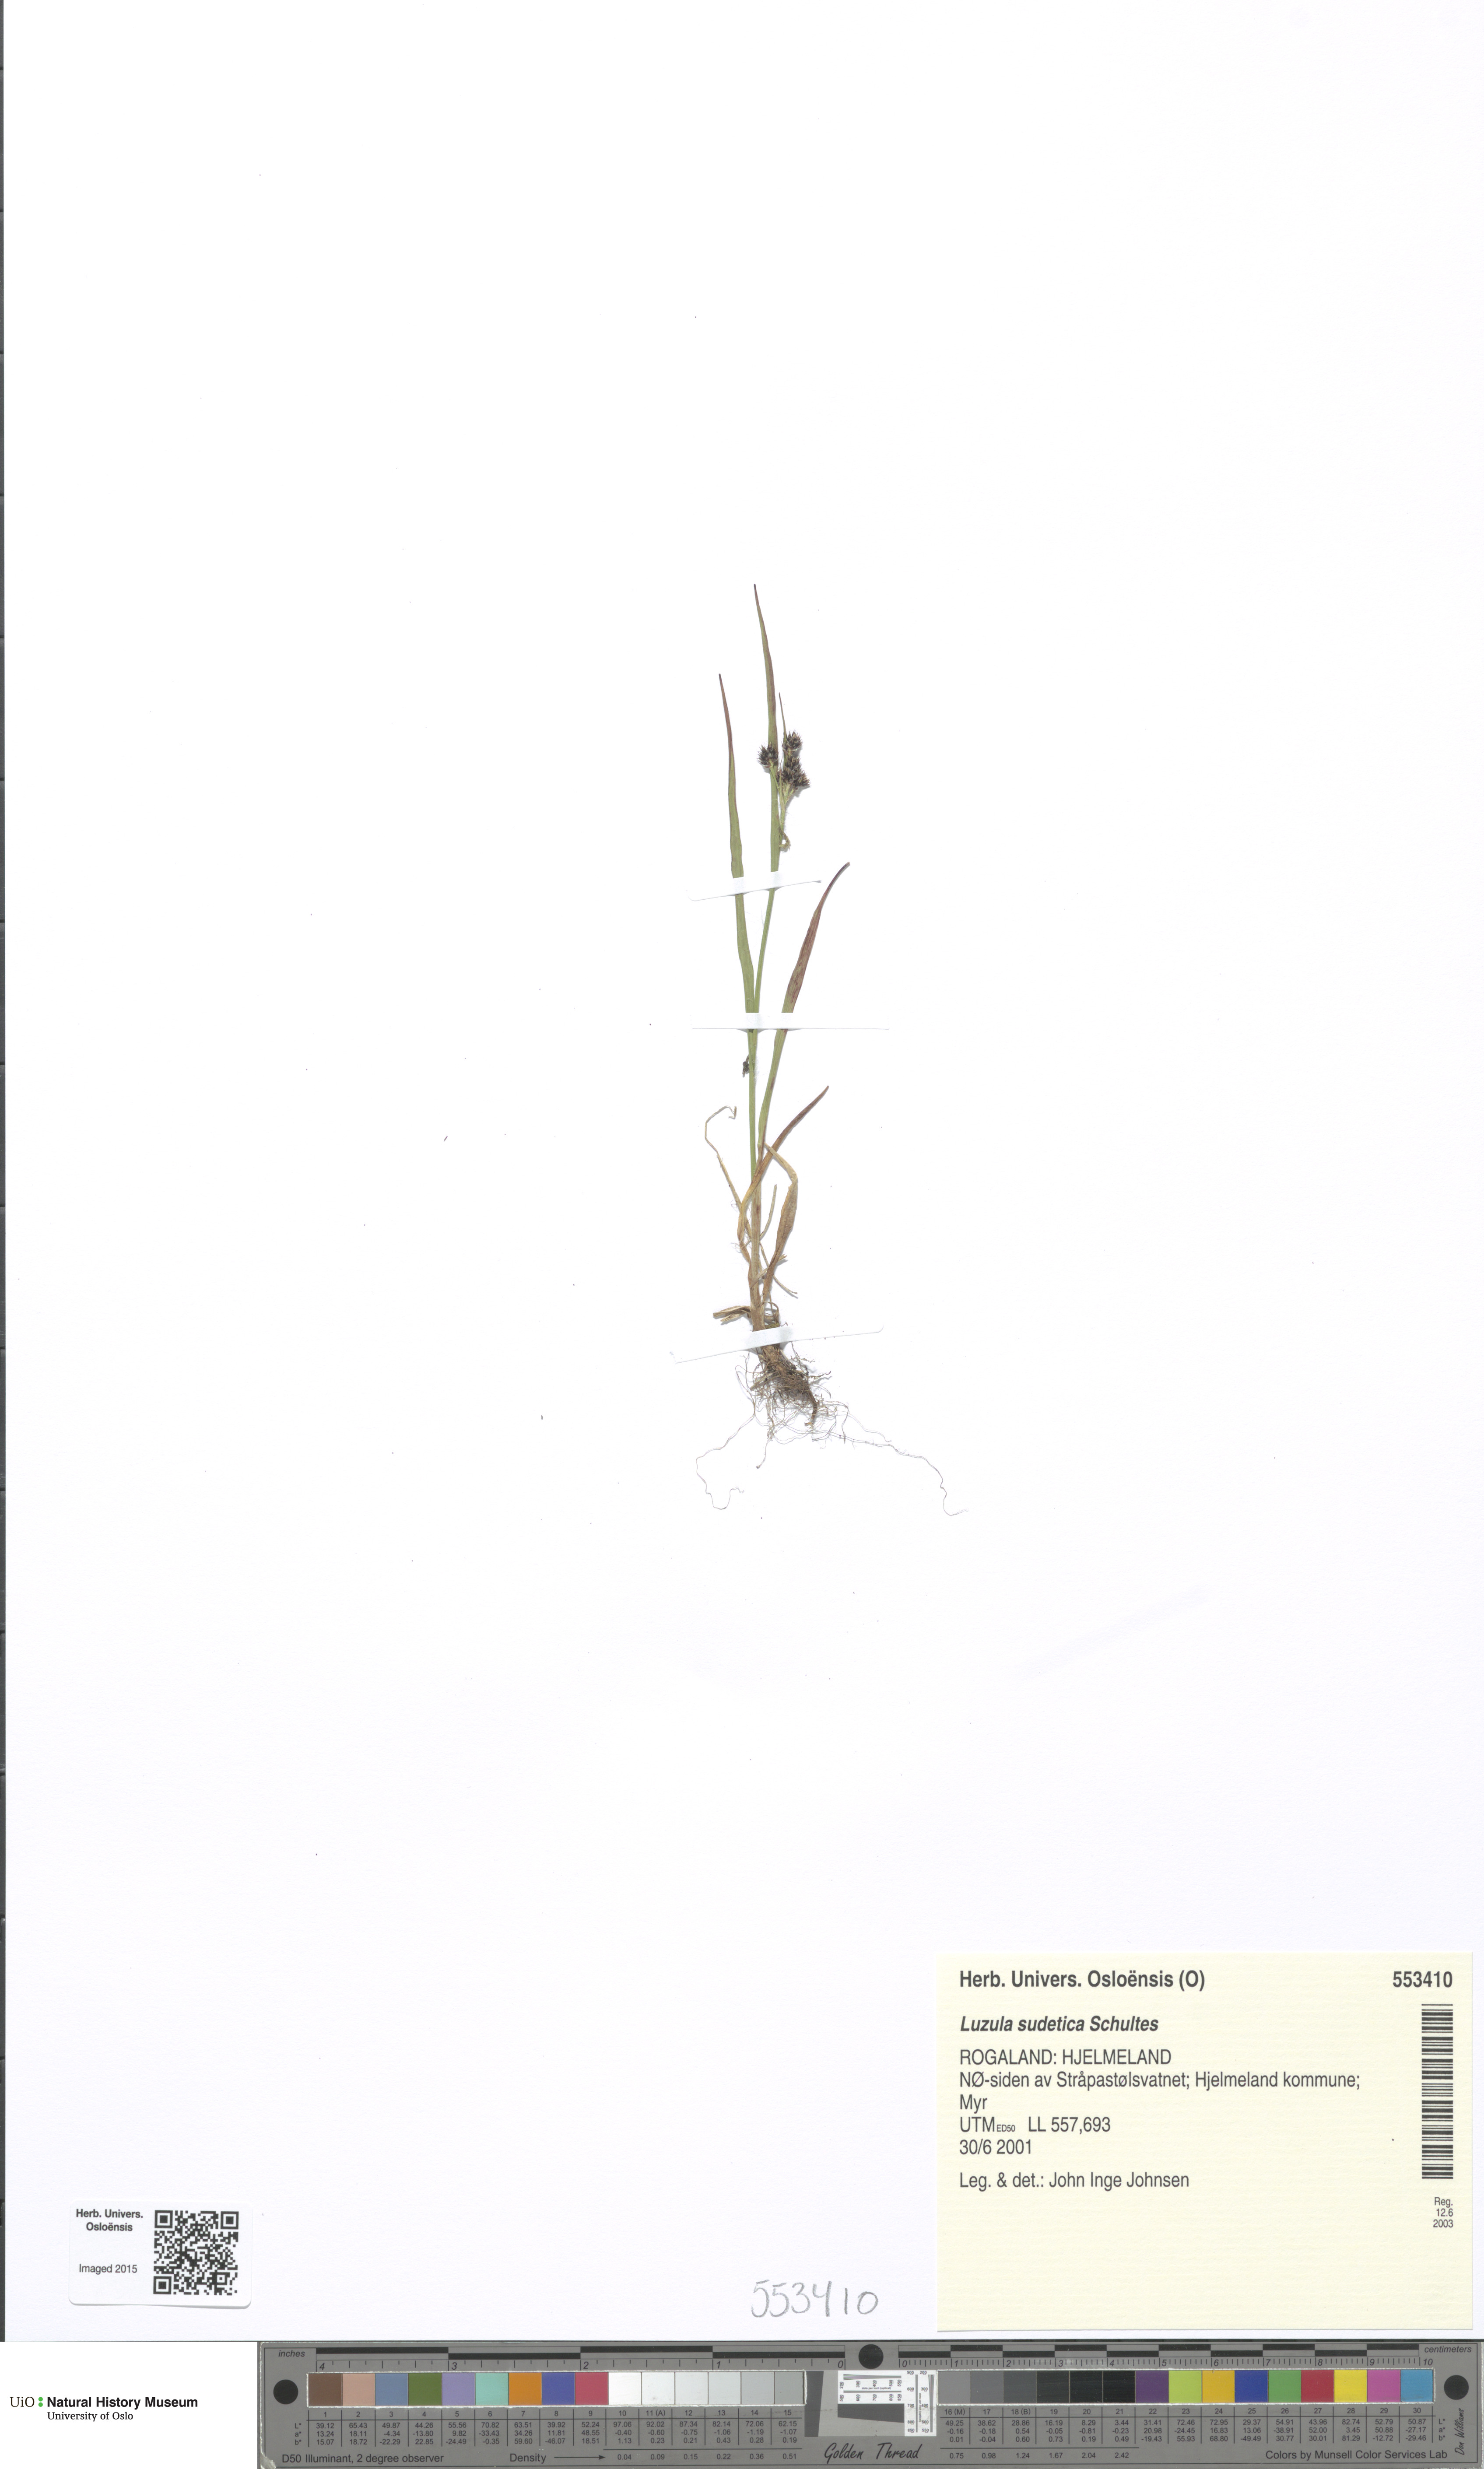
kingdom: Plantae
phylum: Tracheophyta
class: Liliopsida
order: Poales
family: Juncaceae
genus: Luzula
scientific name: Luzula sudetica
